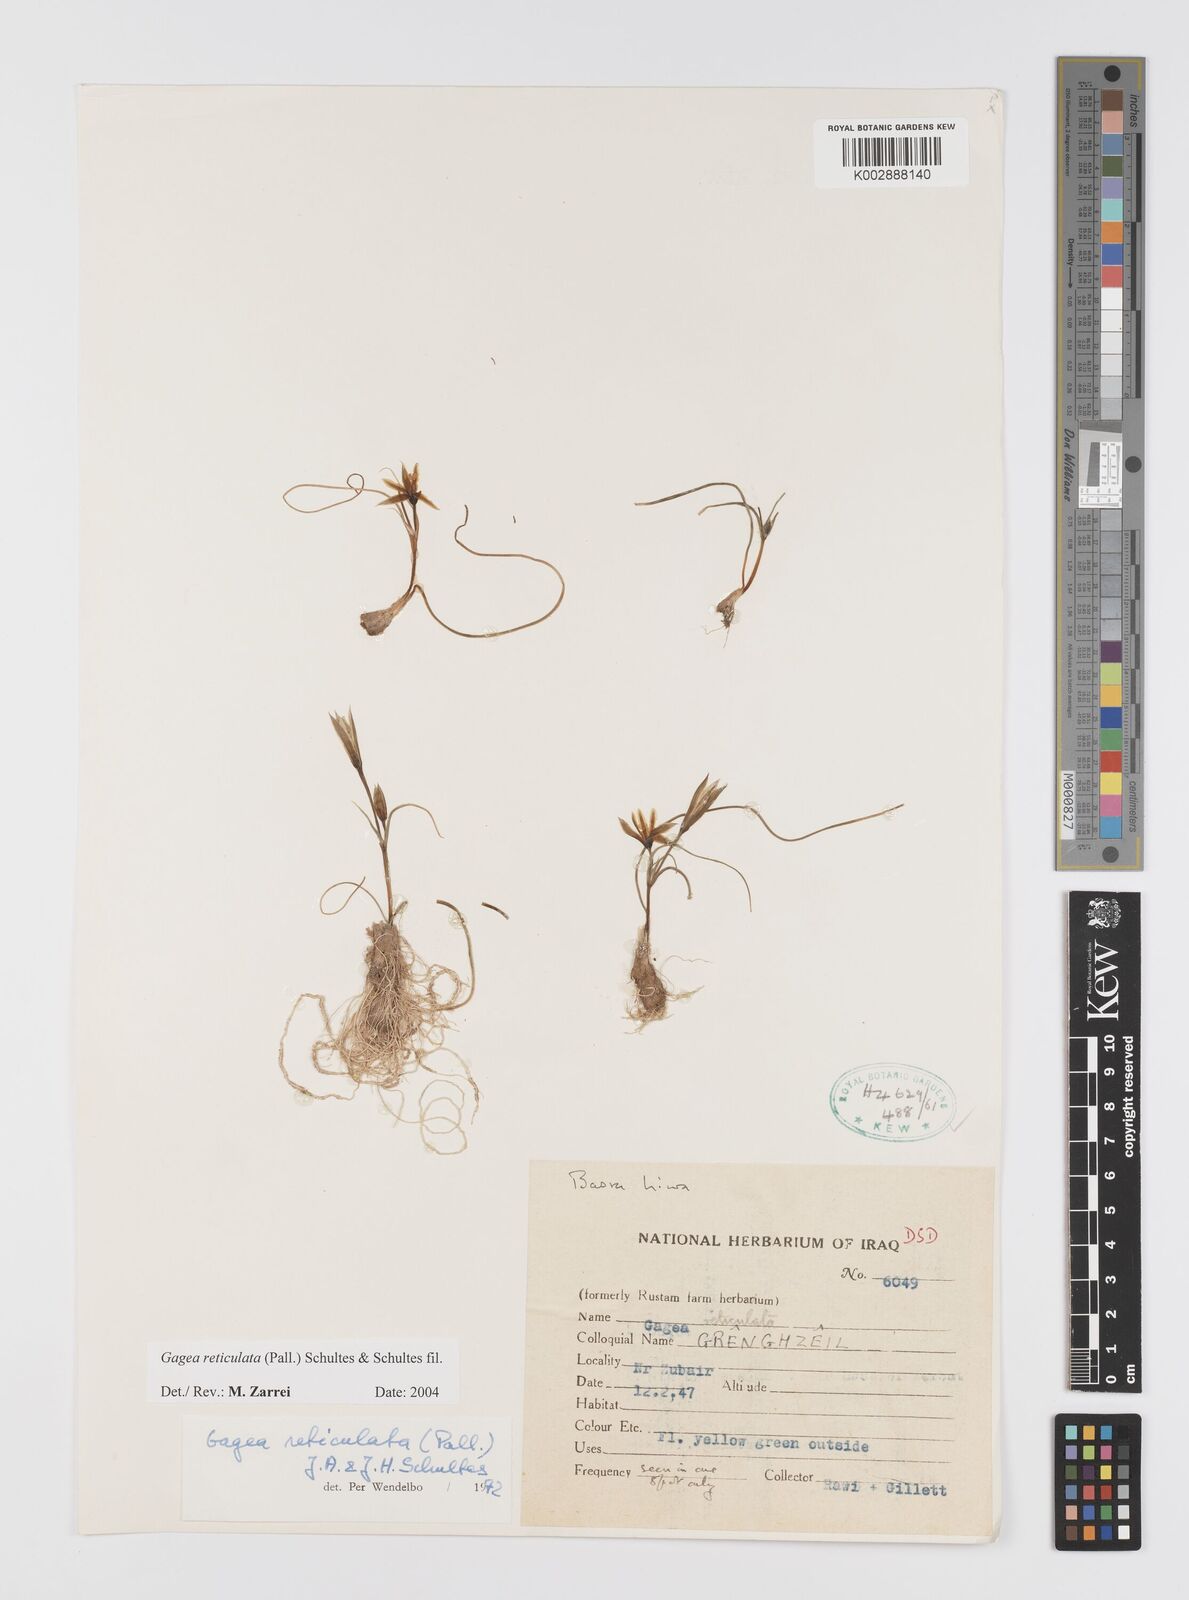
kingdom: Plantae
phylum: Tracheophyta
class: Liliopsida
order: Liliales
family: Liliaceae
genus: Gagea
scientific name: Gagea reticulata
